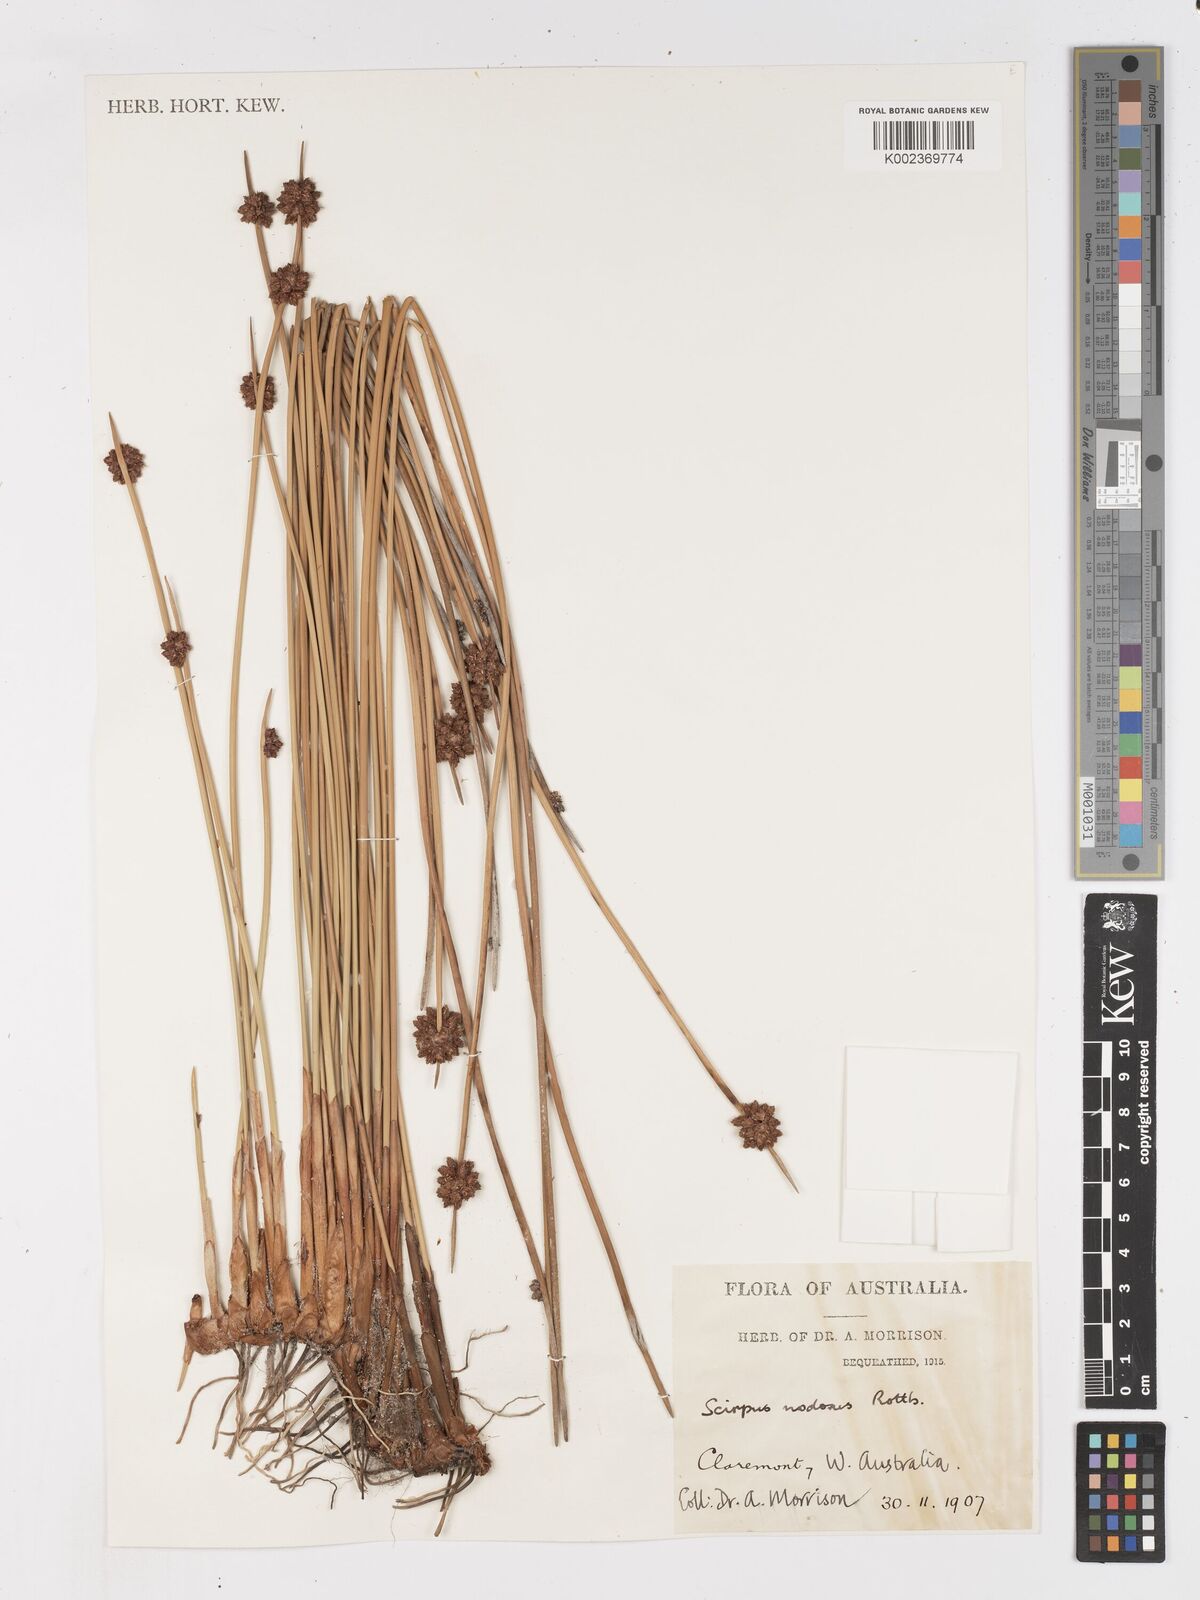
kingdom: Plantae
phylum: Tracheophyta
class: Liliopsida
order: Poales
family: Cyperaceae
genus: Ficinia
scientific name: Ficinia nodosa
